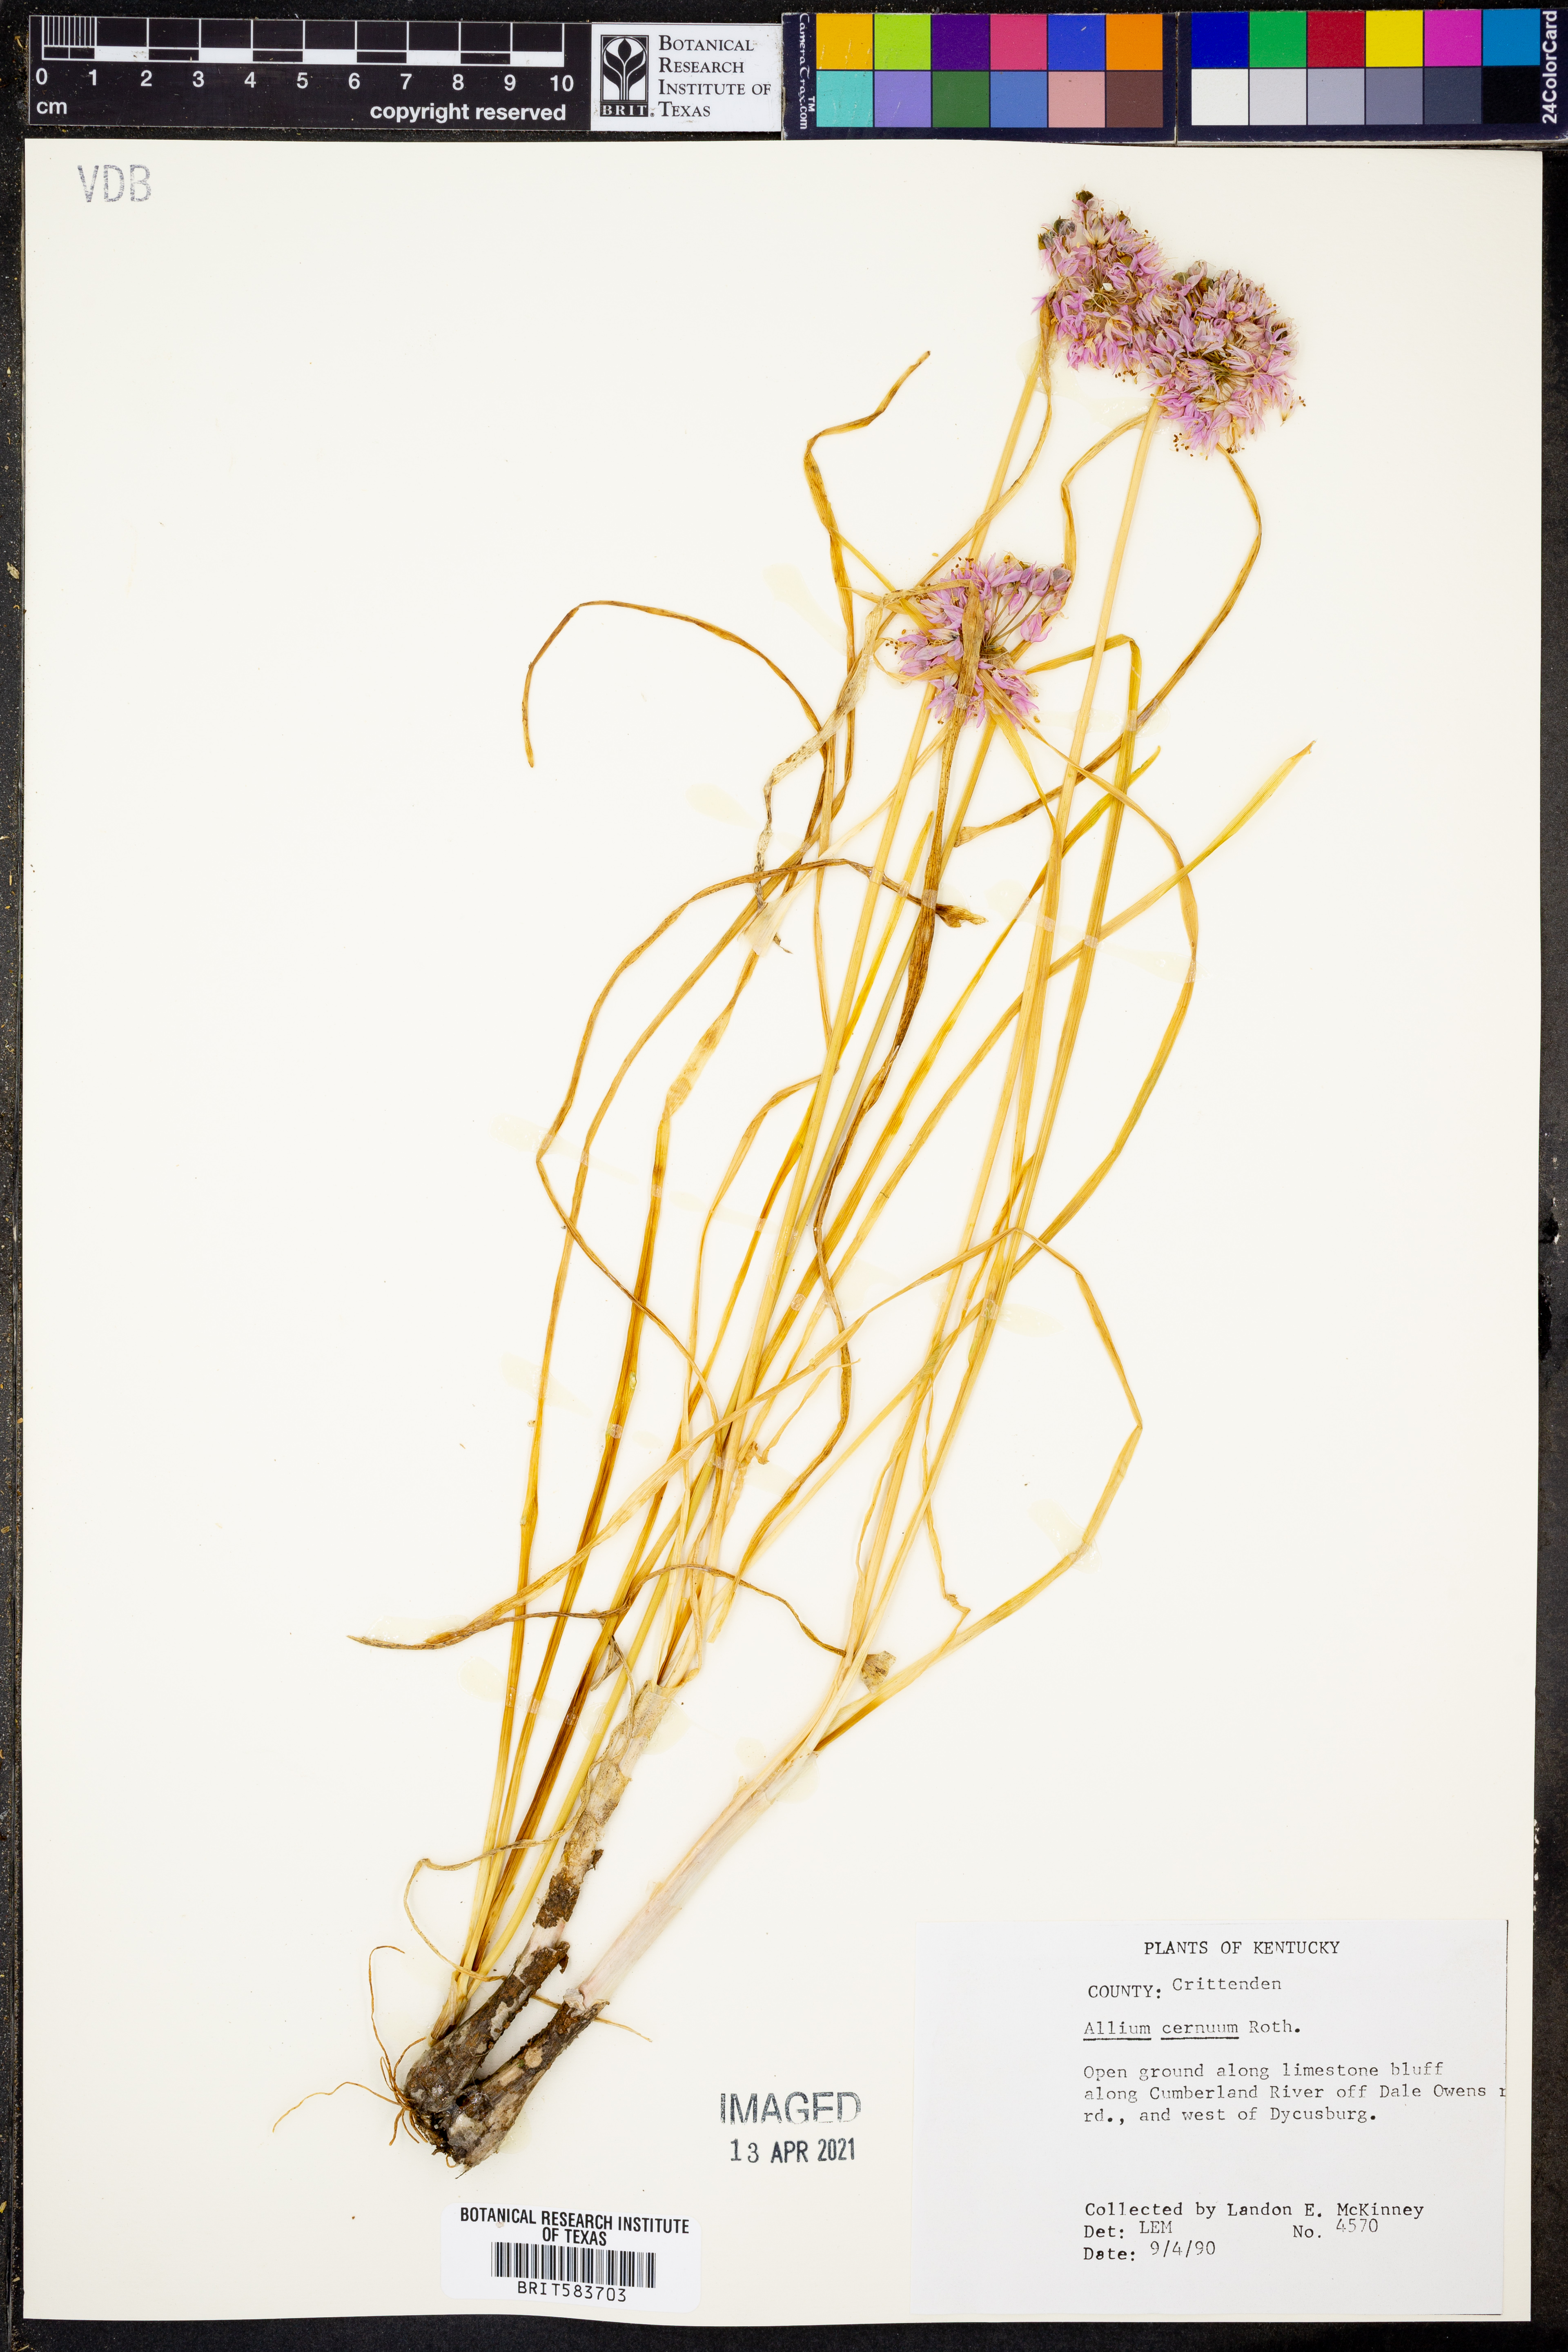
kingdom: Plantae
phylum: Tracheophyta
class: Liliopsida
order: Asparagales
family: Amaryllidaceae
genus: Allium
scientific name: Allium cernuum
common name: Nodding onion
